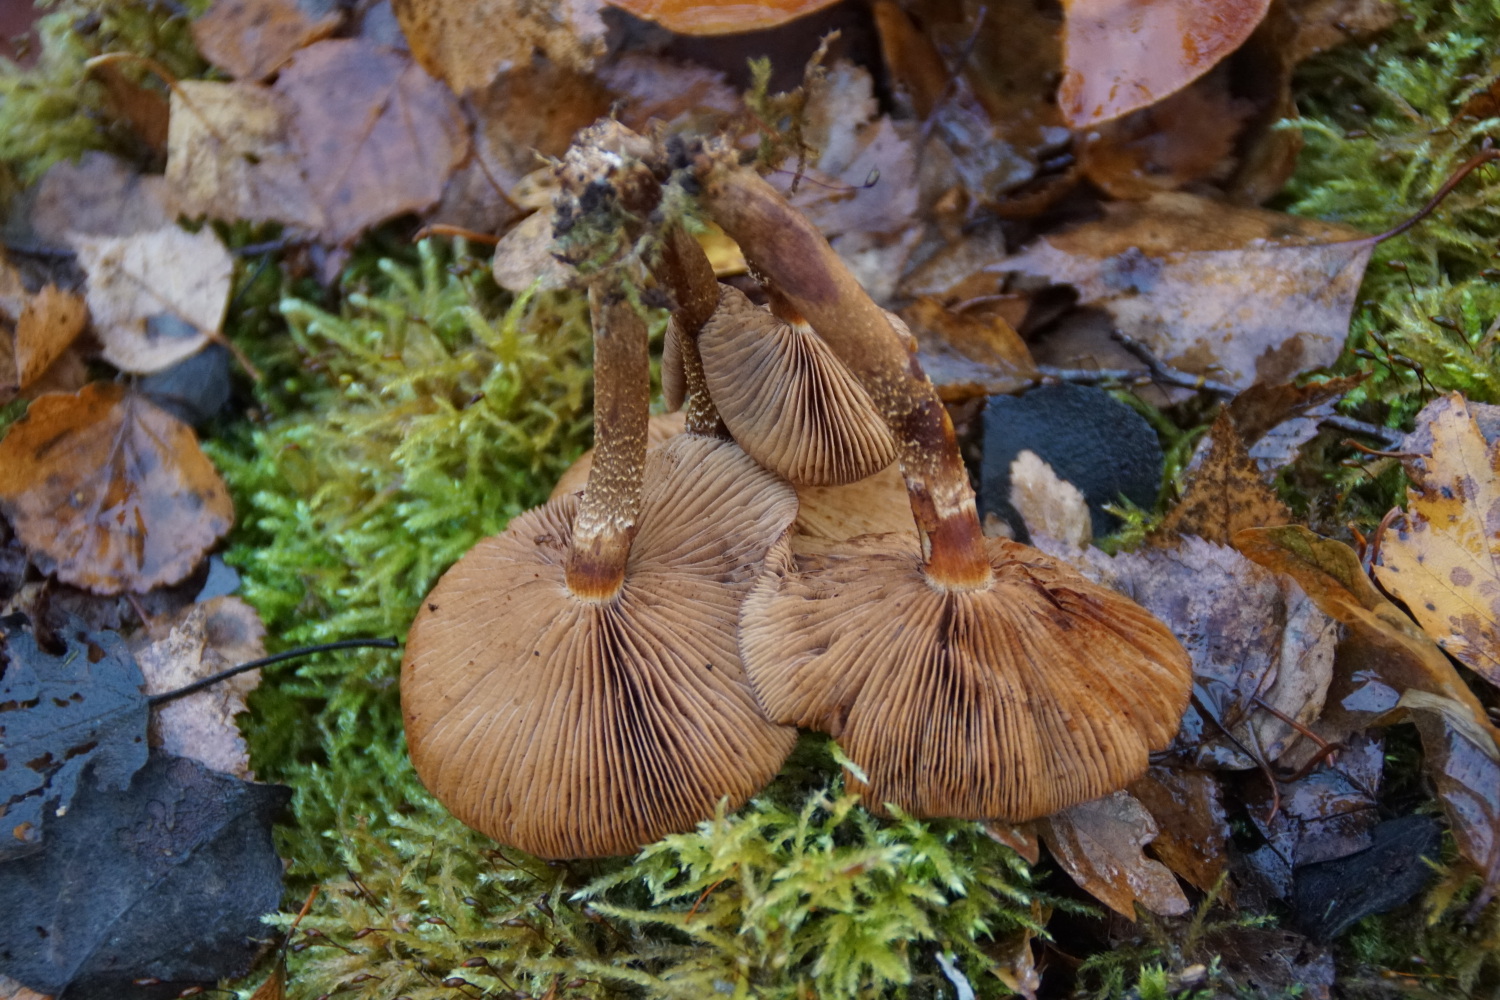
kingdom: Fungi
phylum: Basidiomycota
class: Agaricomycetes
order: Agaricales
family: Strophariaceae
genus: Kuehneromyces
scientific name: Kuehneromyces mutabilis
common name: foranderlig skælhat
